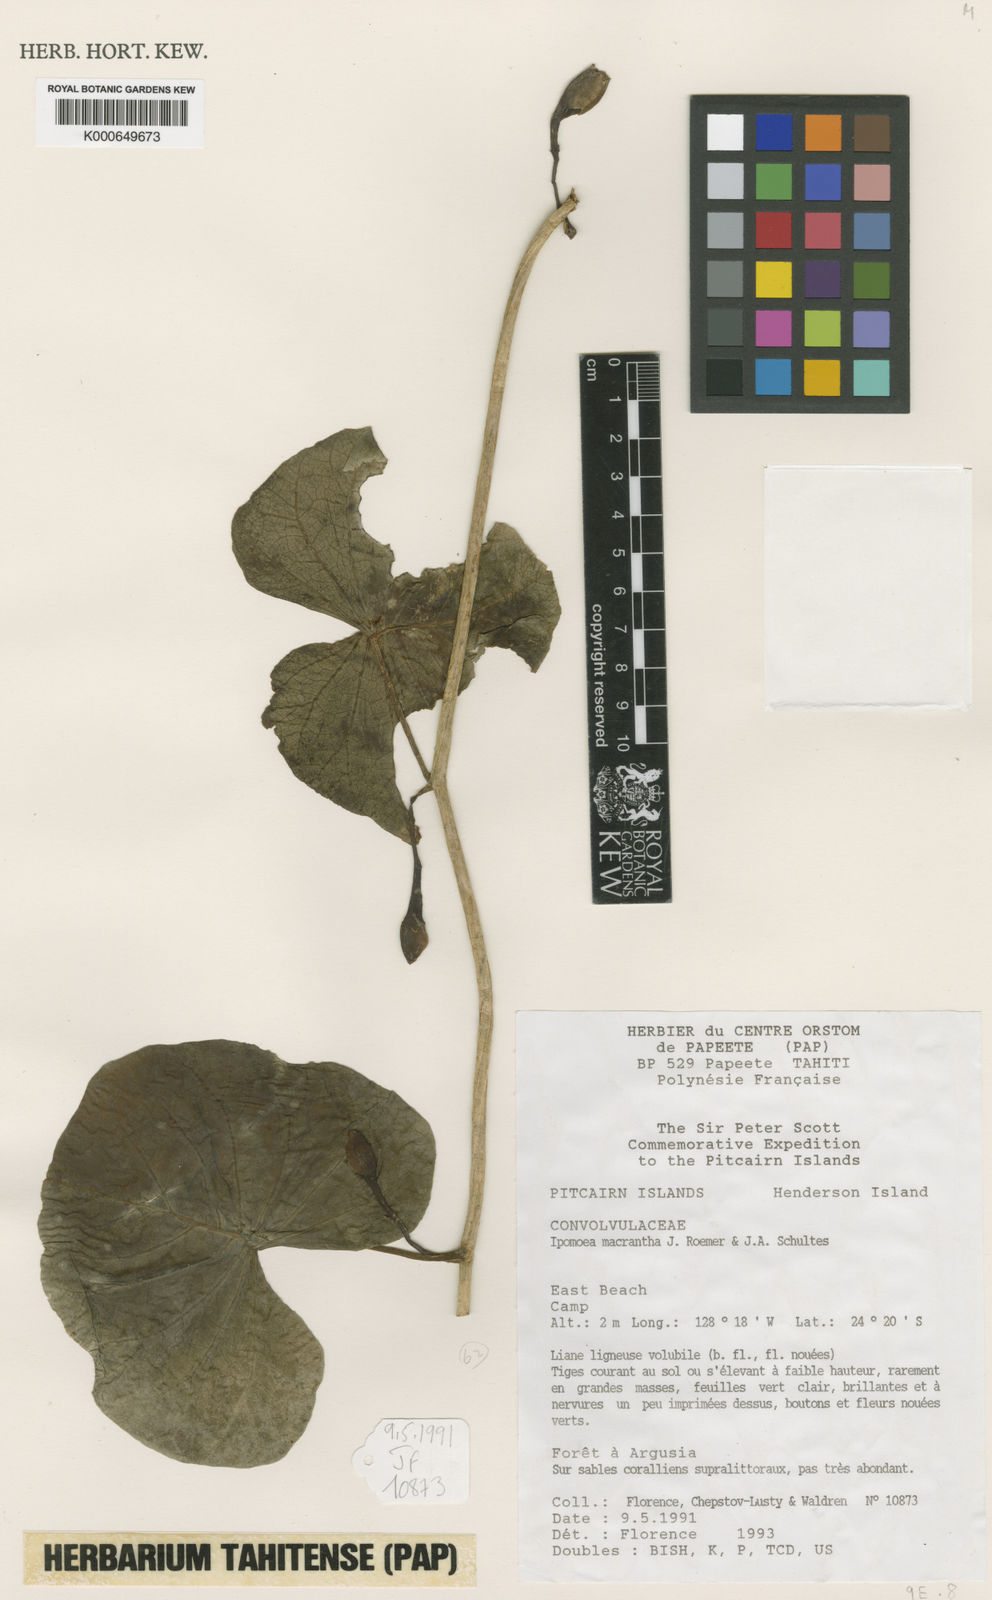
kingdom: Plantae
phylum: Tracheophyta
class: Magnoliopsida
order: Solanales
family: Convolvulaceae
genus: Ipomoea
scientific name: Ipomoea violacea
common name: Beach moonflower
